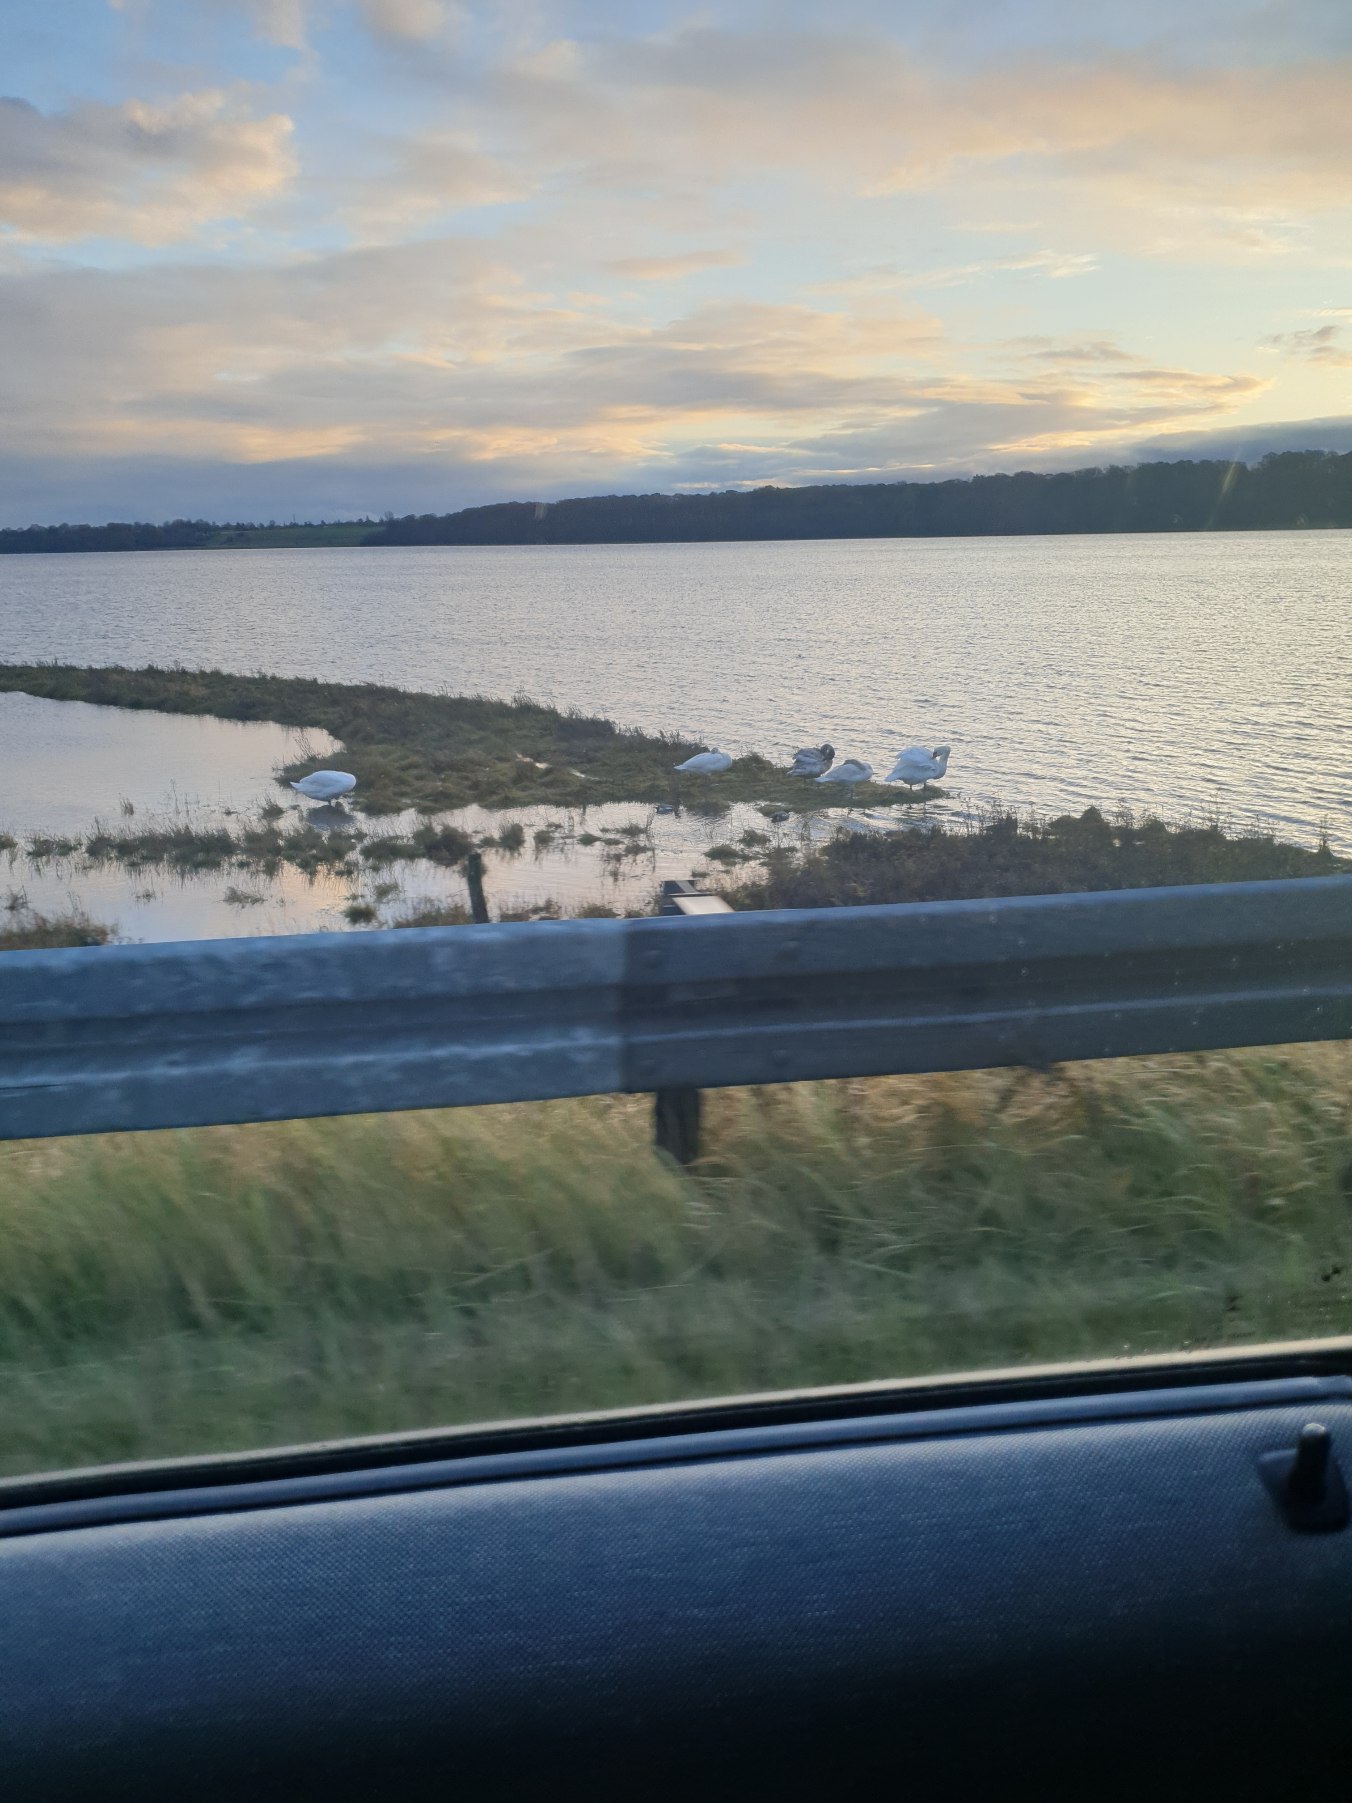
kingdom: Animalia
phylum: Chordata
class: Aves
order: Anseriformes
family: Anatidae
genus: Cygnus
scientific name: Cygnus olor
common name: Knopsvane
